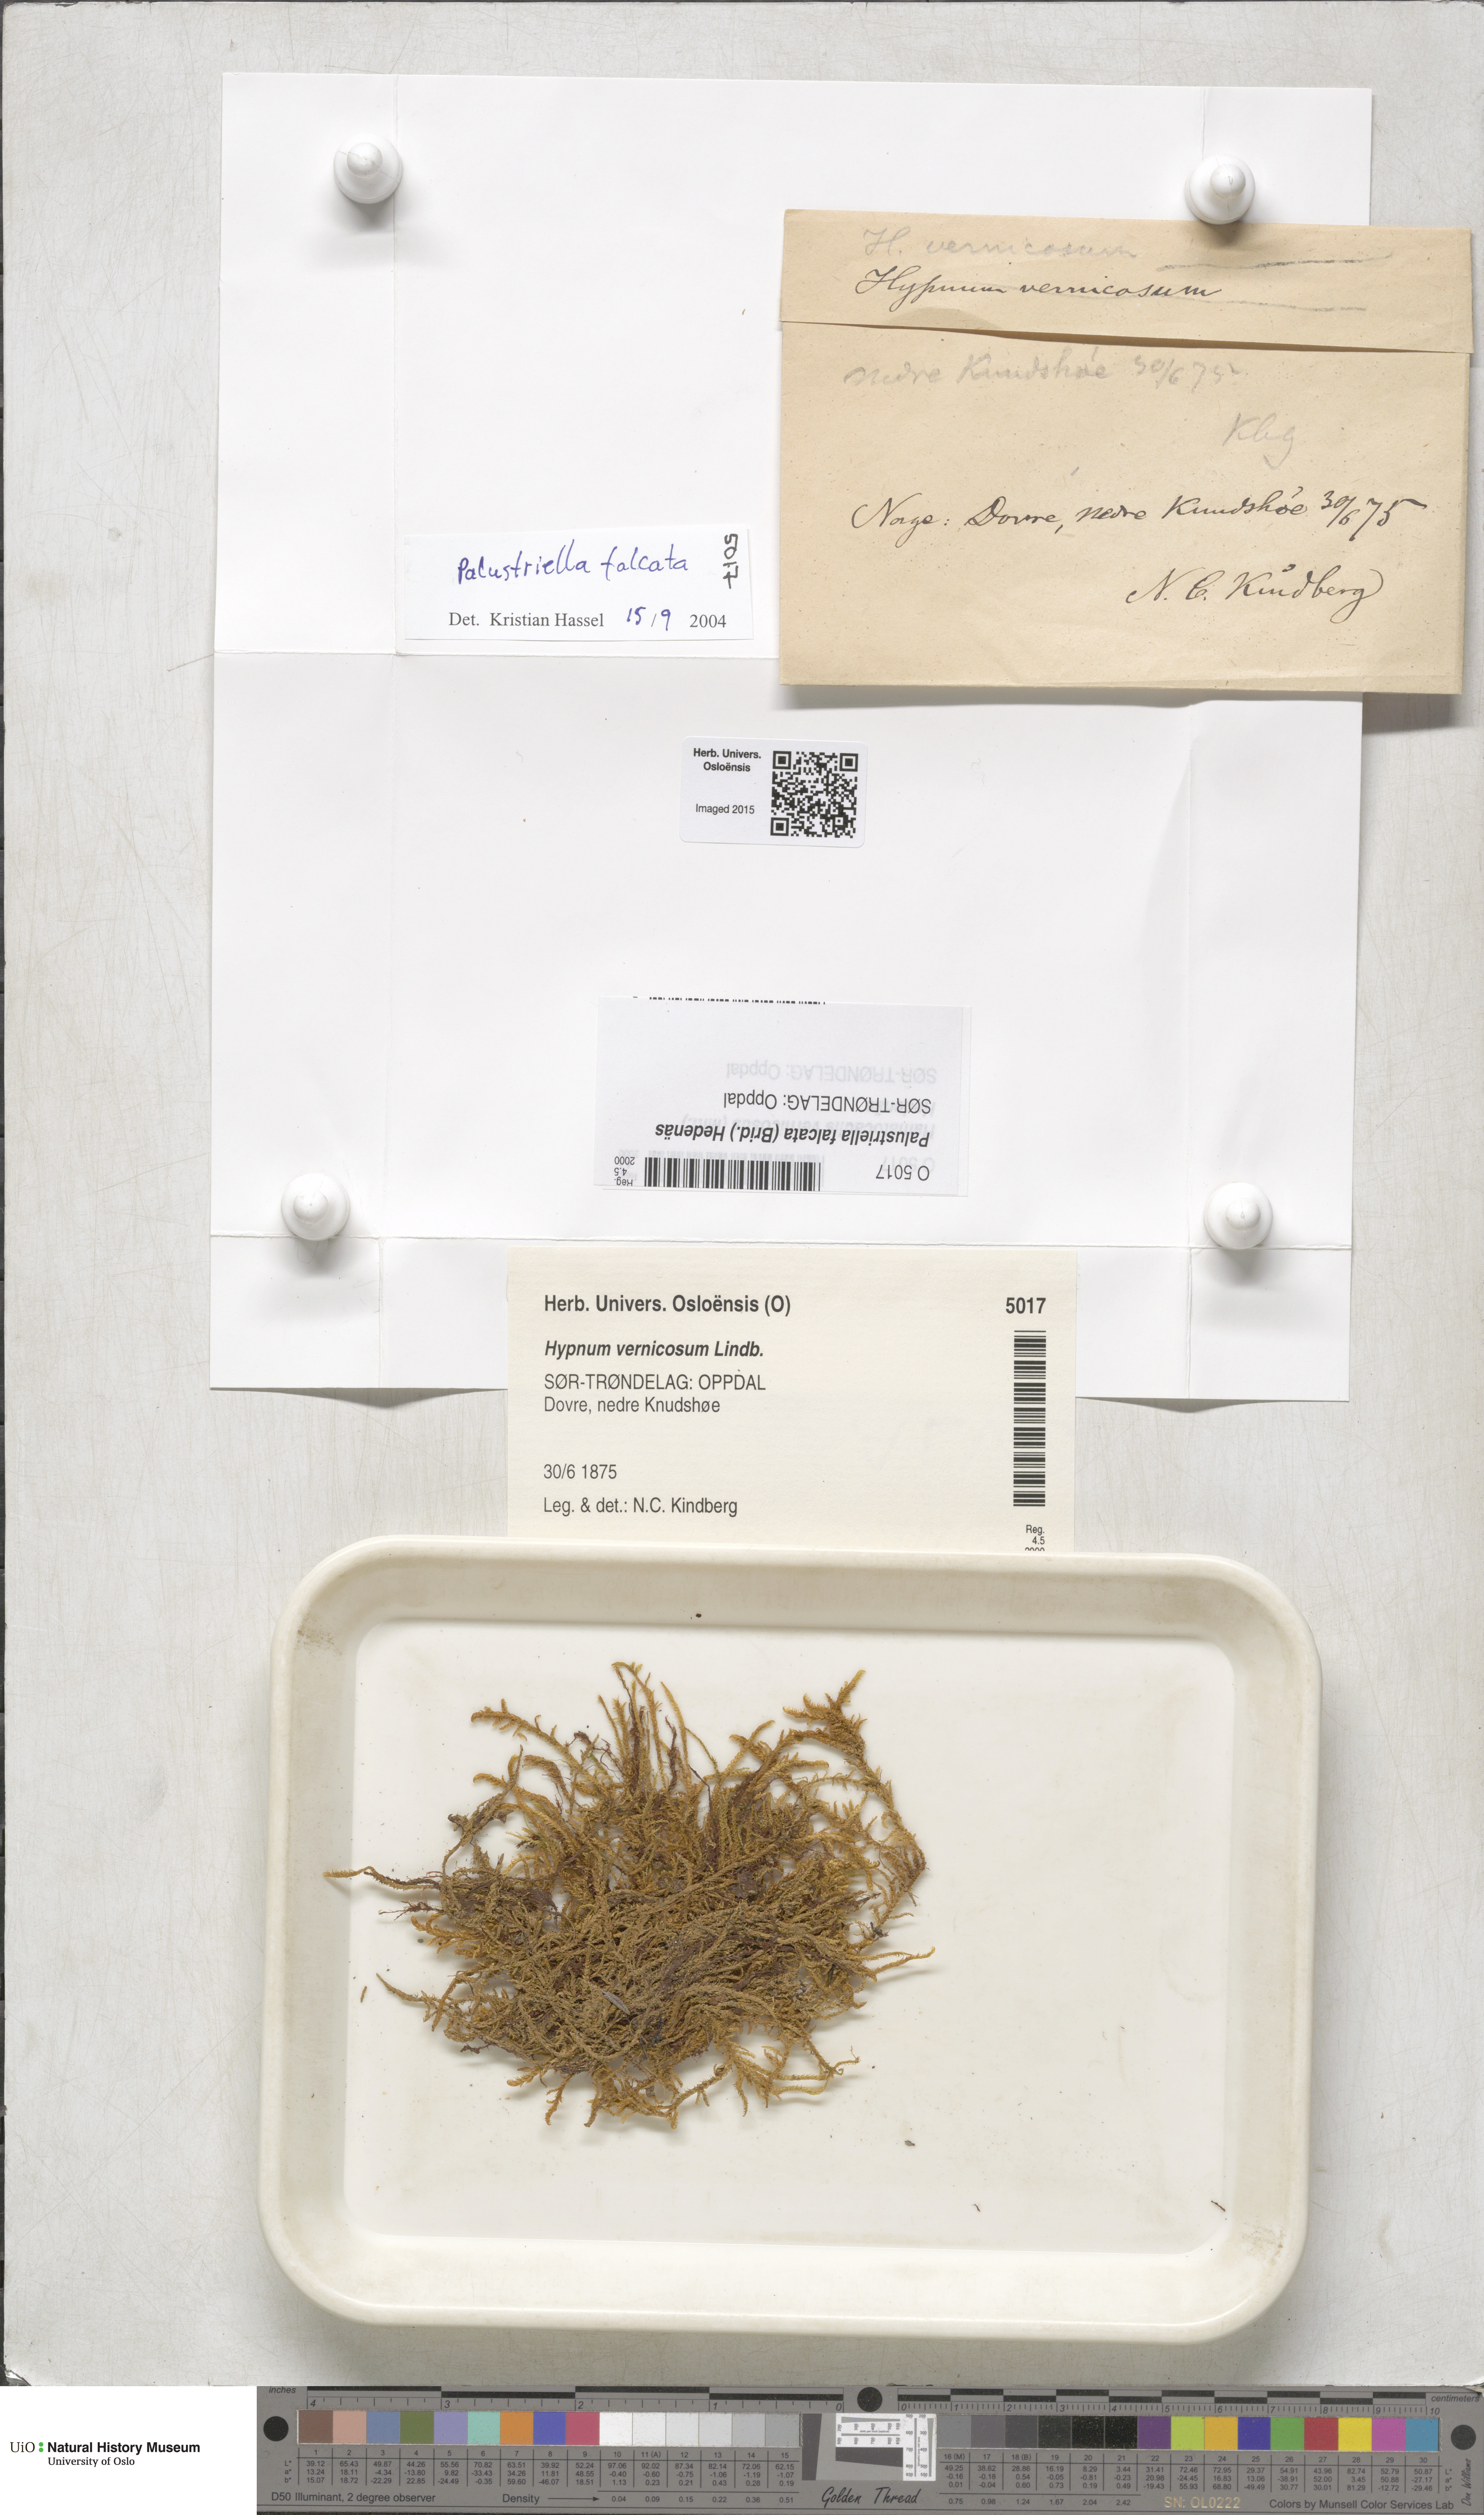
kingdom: Plantae
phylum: Bryophyta
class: Bryopsida
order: Hypnales
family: Amblystegiaceae
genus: Palustriella
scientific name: Palustriella falcata
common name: Curled hook-moss
